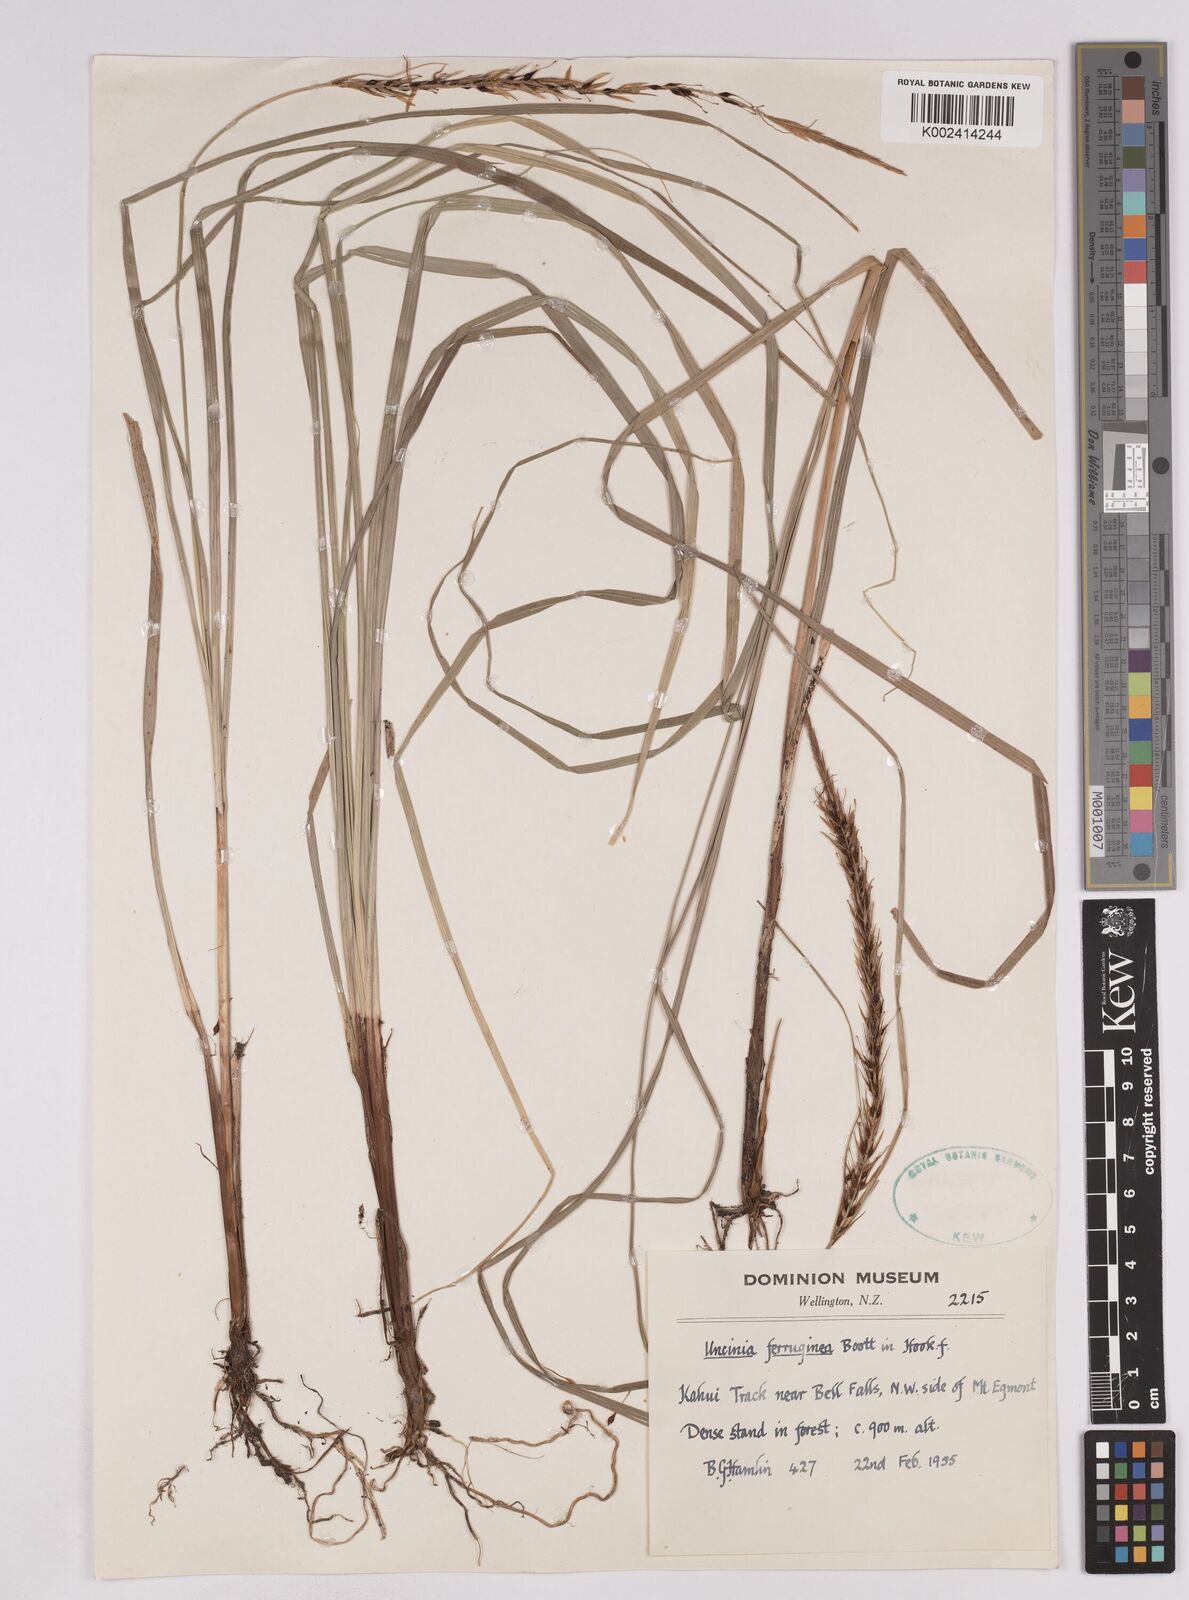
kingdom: Plantae
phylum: Tracheophyta
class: Liliopsida
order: Poales
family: Cyperaceae
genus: Carex
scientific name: Carex uncinata
